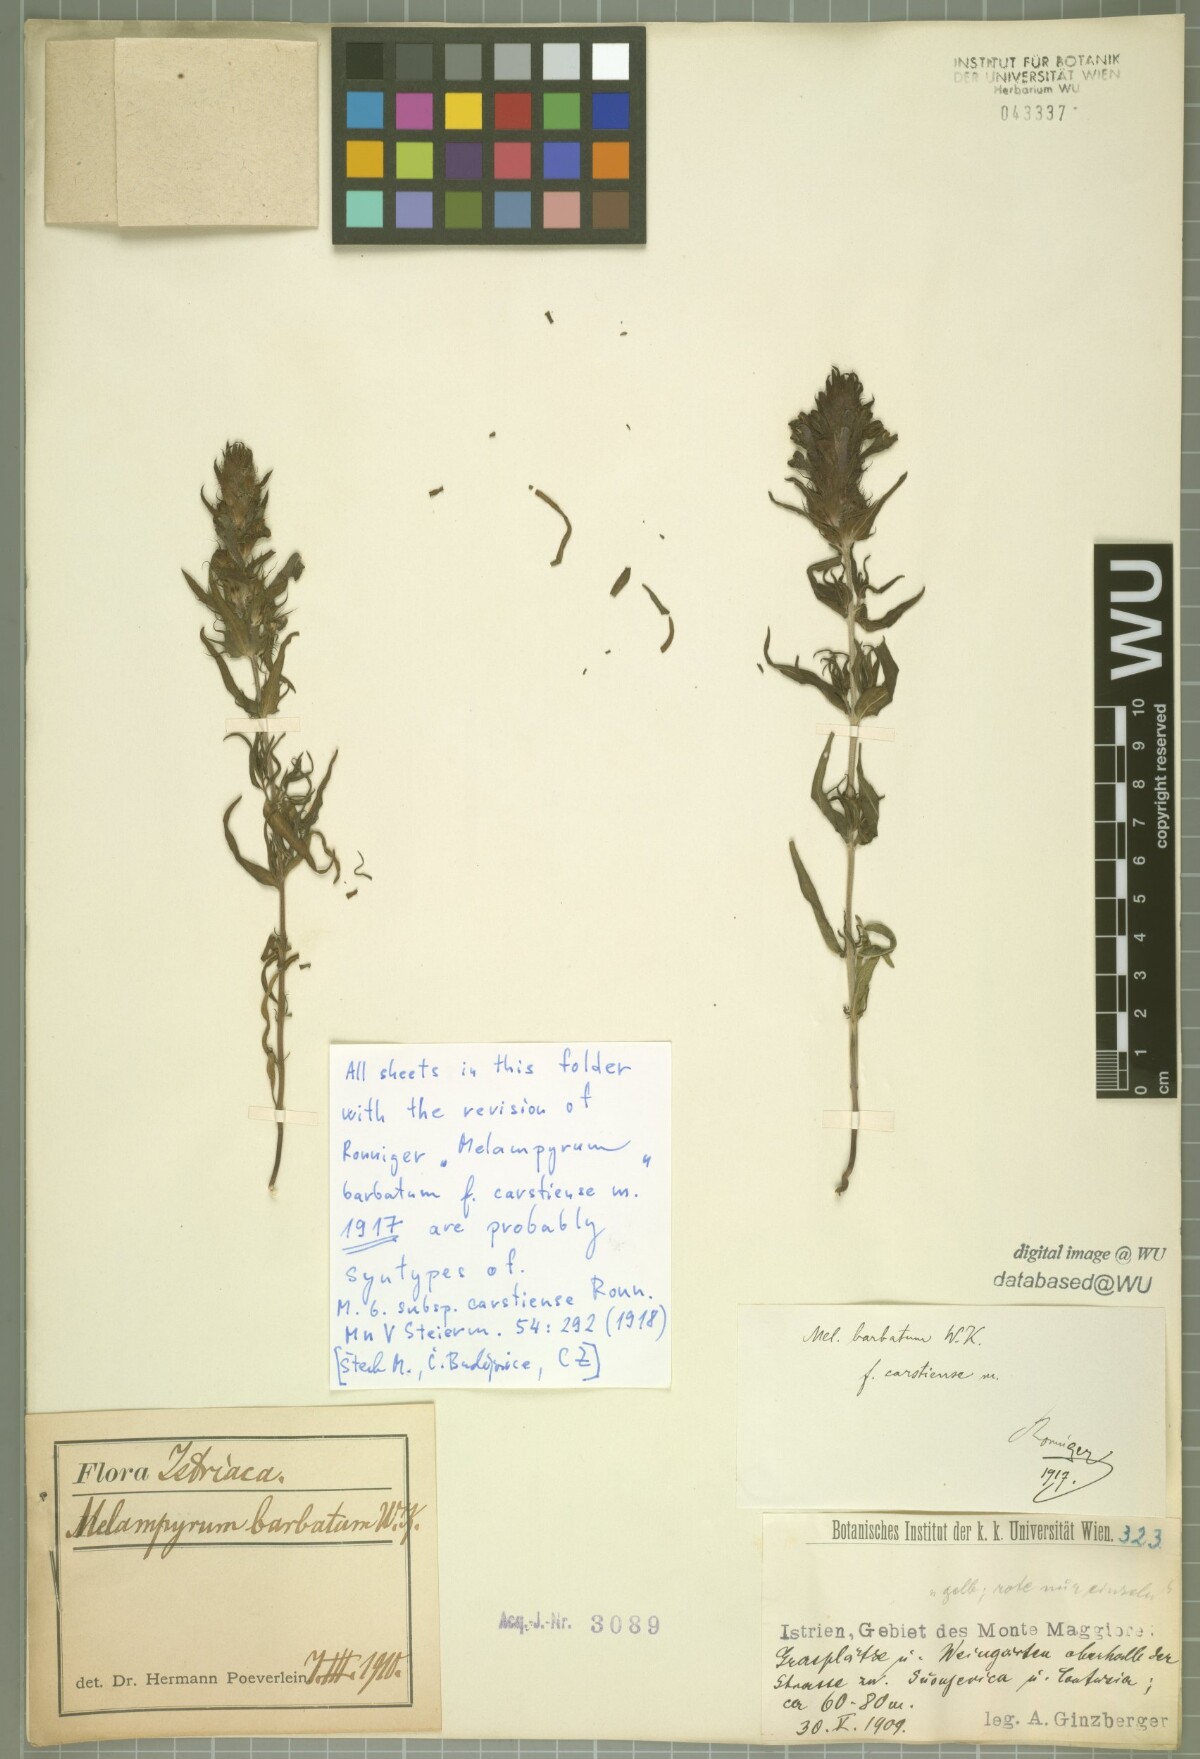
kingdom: Plantae
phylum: Tracheophyta
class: Magnoliopsida
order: Lamiales
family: Orobanchaceae
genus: Melampyrum
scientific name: Melampyrum barbatum
